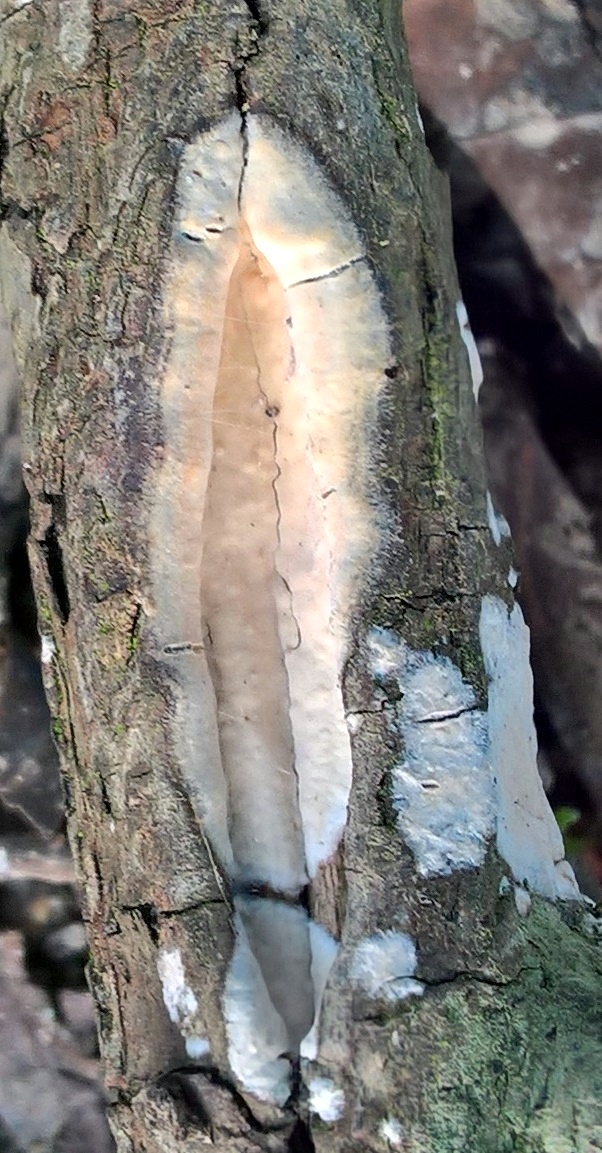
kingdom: Fungi
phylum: Basidiomycota
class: Agaricomycetes
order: Agaricales
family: Physalacriaceae
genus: Cylindrobasidium
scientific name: Cylindrobasidium evolvens
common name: sprækkehinde
